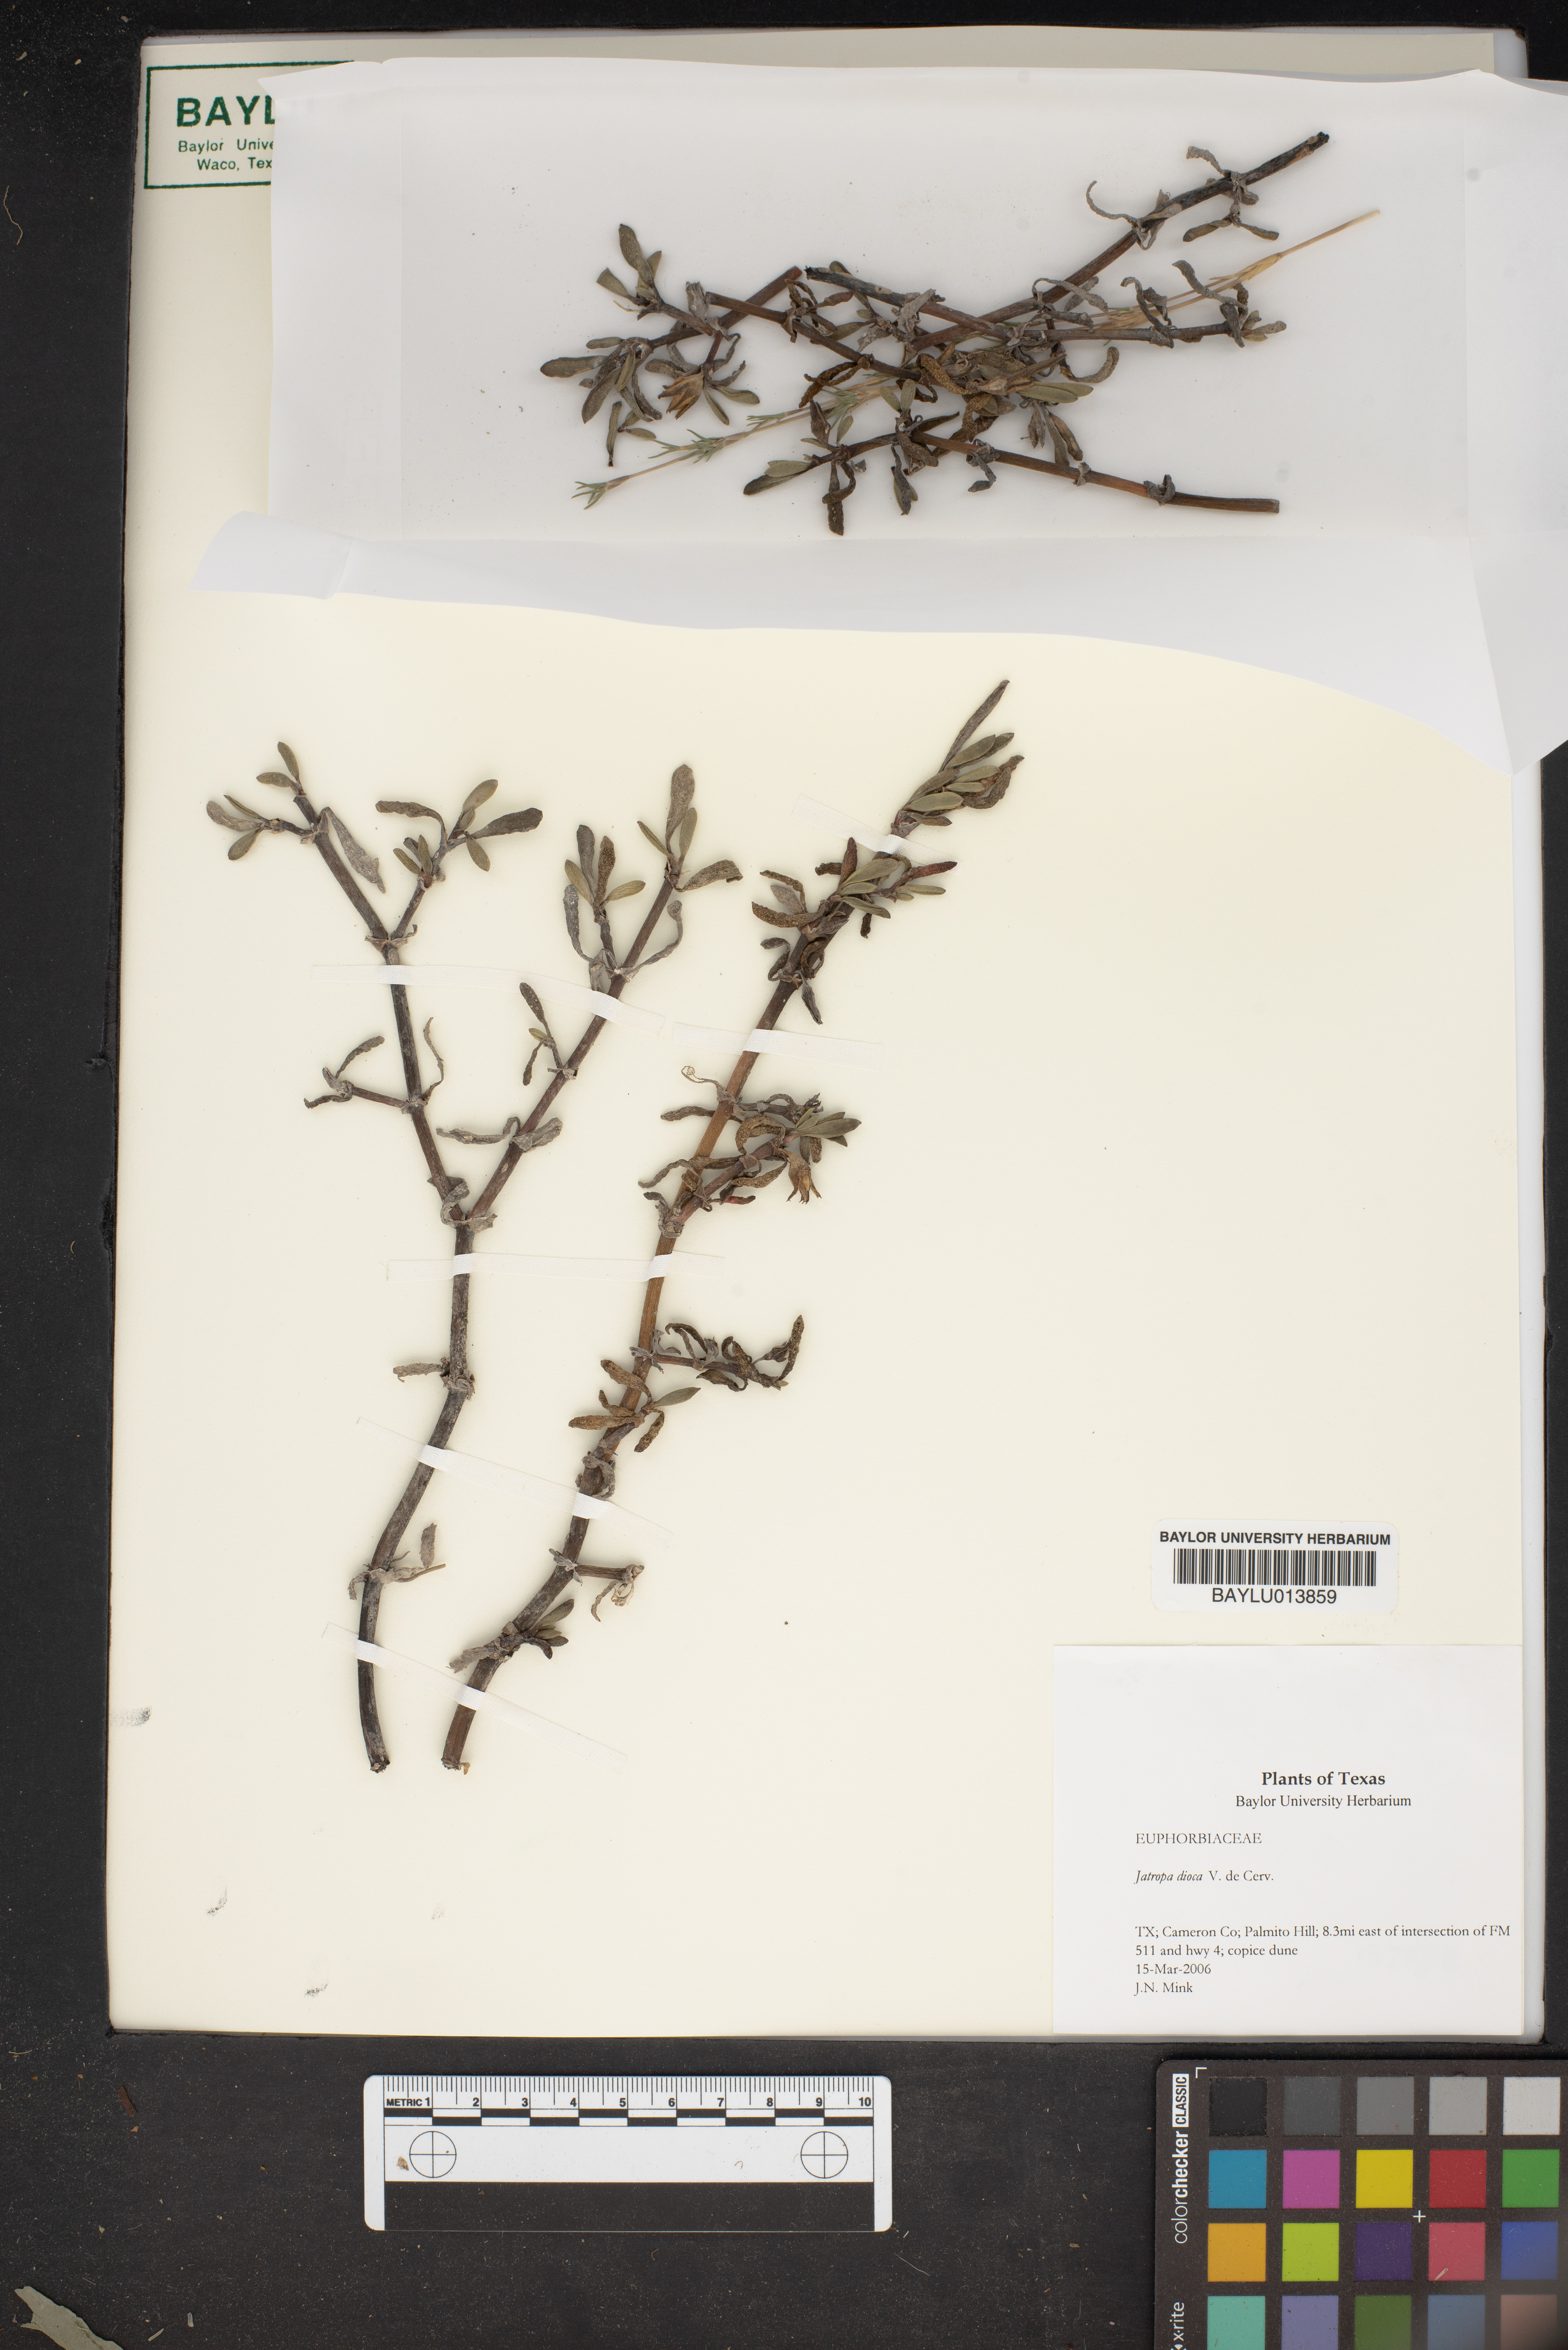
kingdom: Plantae
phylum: Tracheophyta
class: Magnoliopsida
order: Malpighiales
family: Euphorbiaceae
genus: Jatropha
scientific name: Jatropha dioica
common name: Leatherstem
